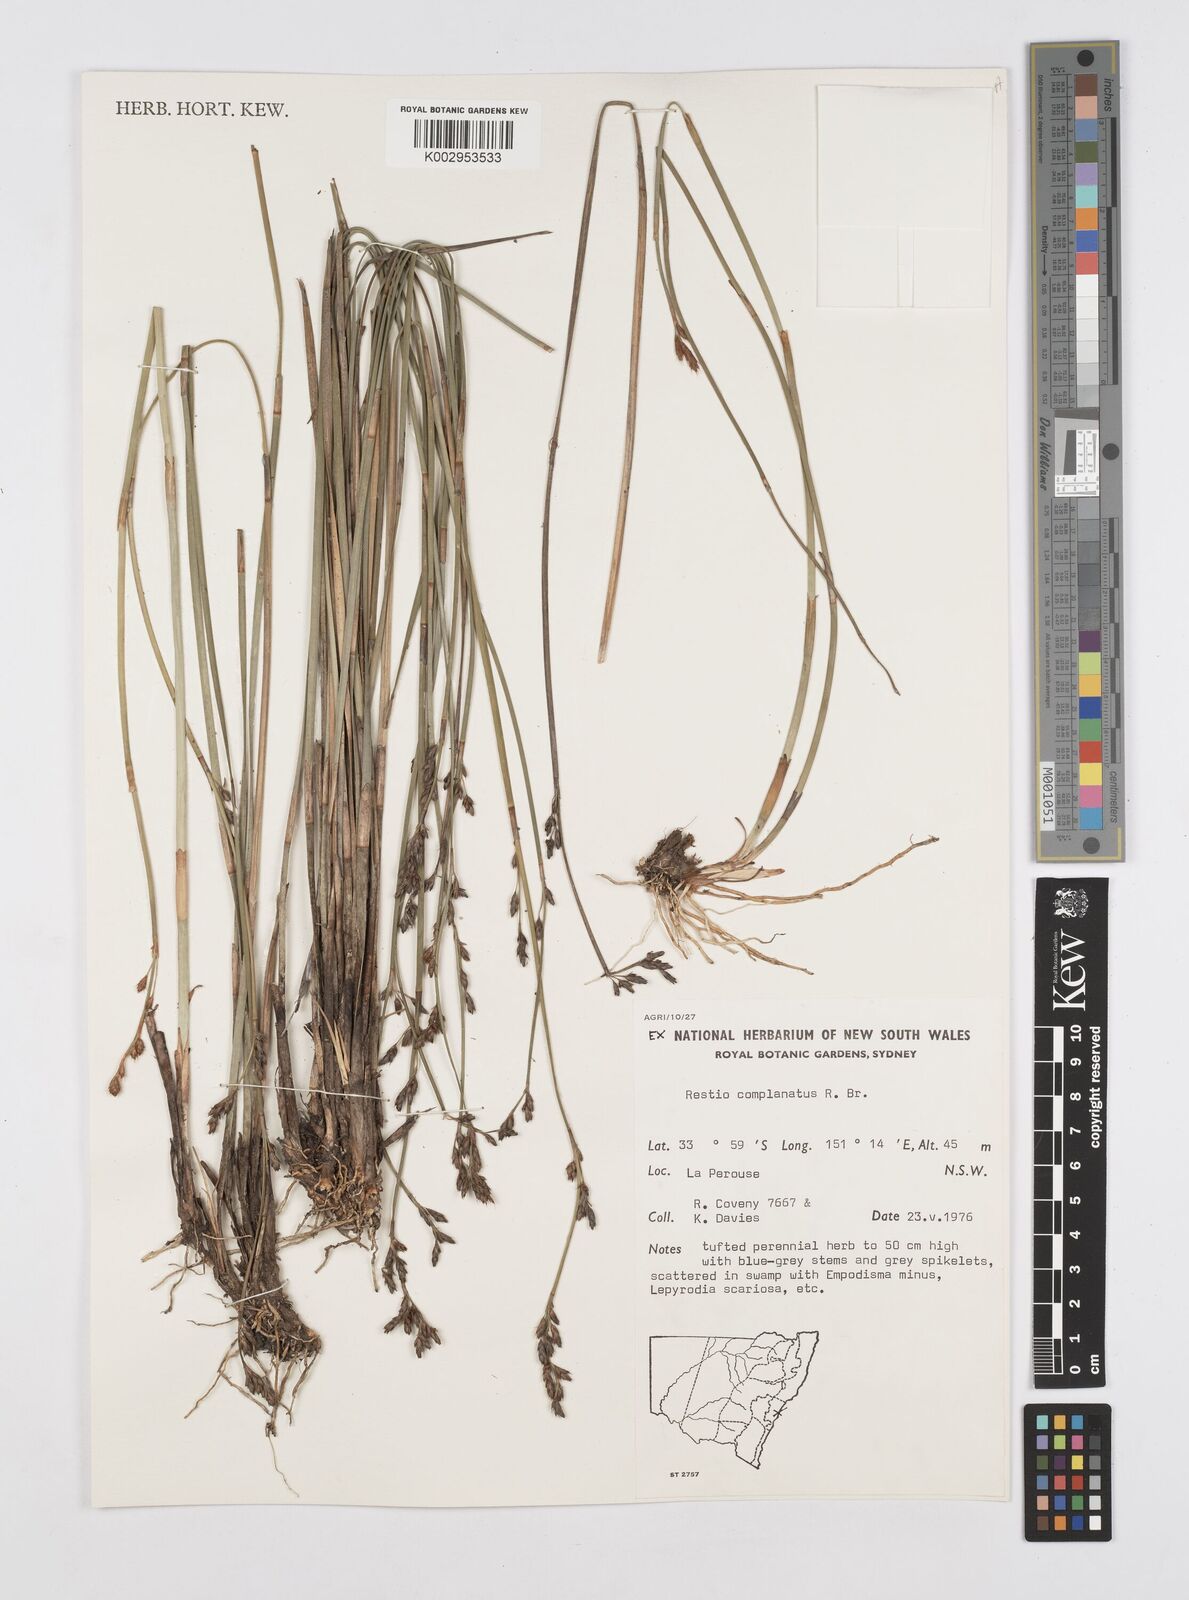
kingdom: Plantae
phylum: Tracheophyta
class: Liliopsida
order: Poales
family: Restionaceae
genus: Eurychorda
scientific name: Eurychorda complanata
